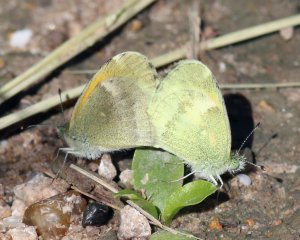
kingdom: Animalia
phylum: Arthropoda
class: Insecta
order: Lepidoptera
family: Pieridae
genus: Nathalis
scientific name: Nathalis iole
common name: Dainty Sulphur
